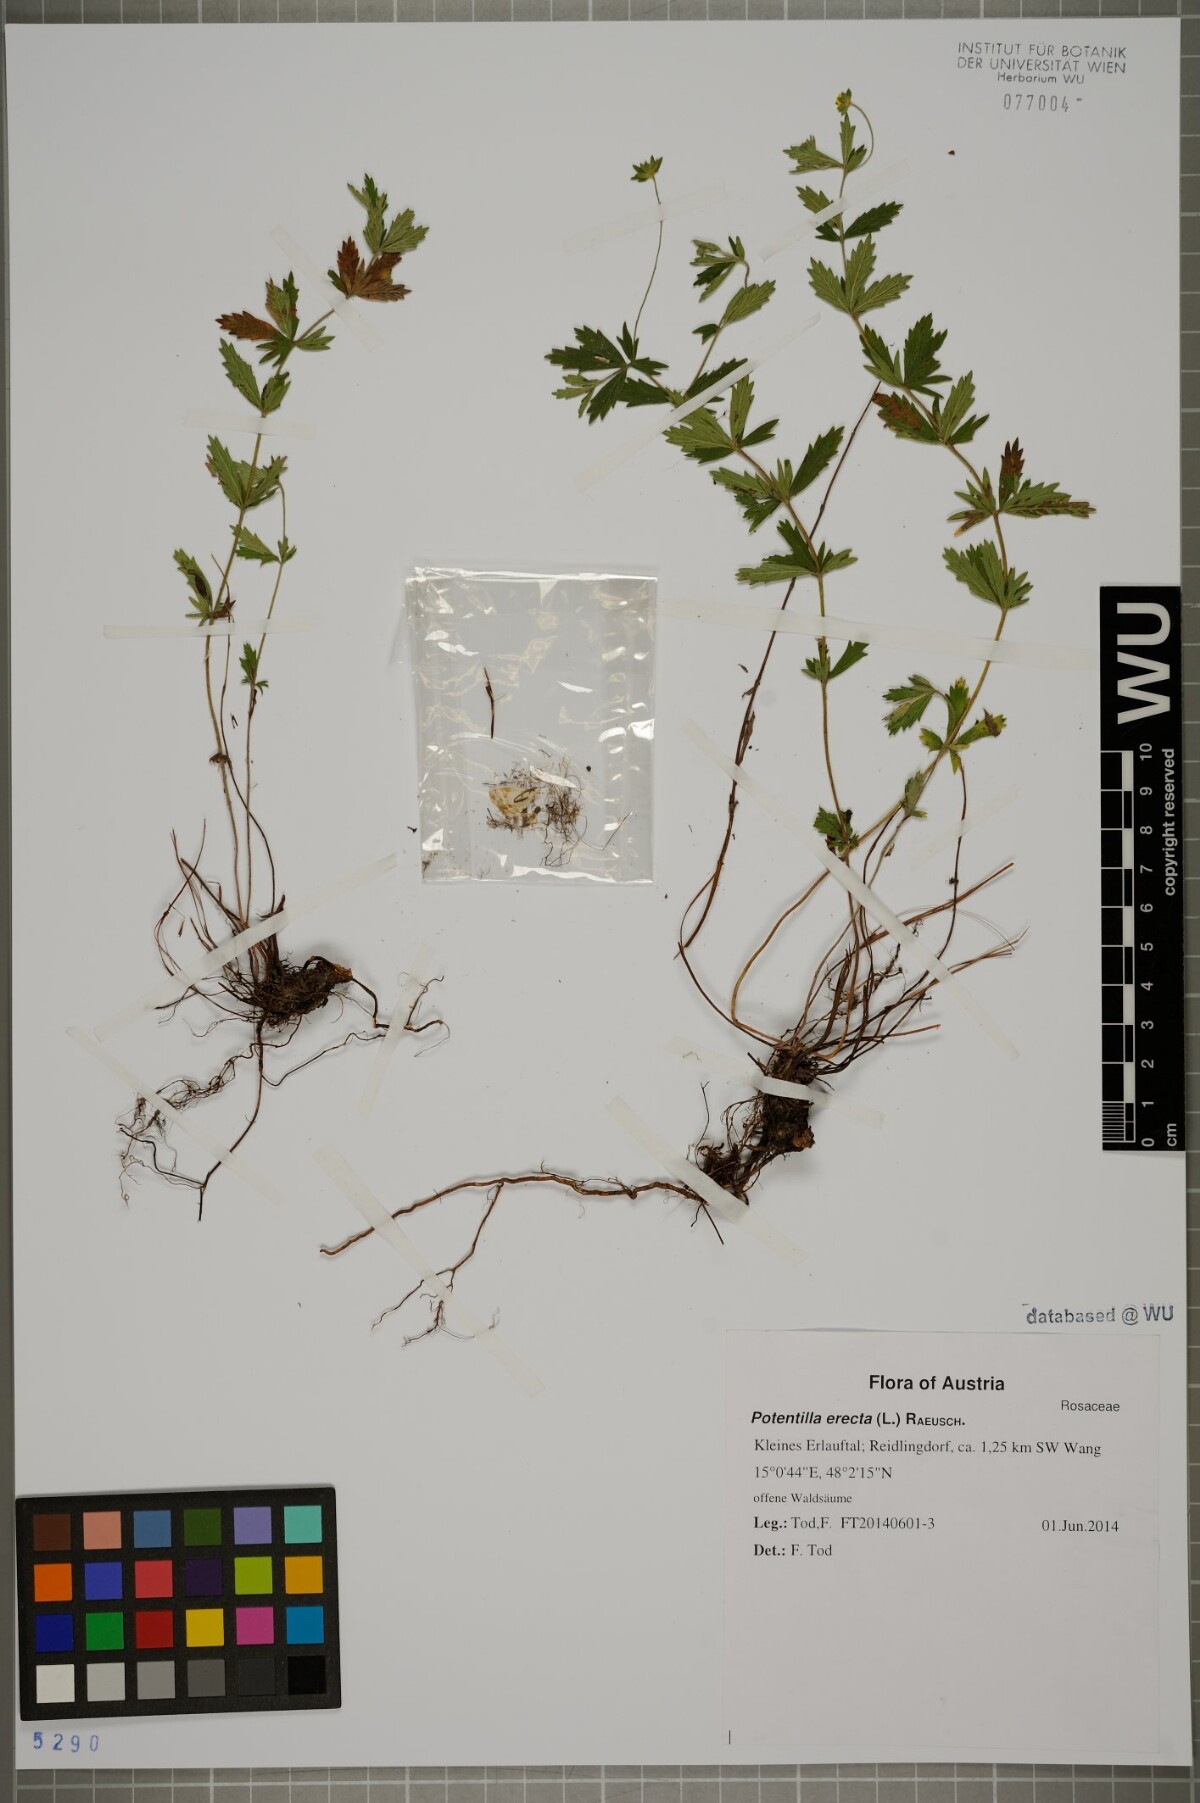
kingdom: Plantae
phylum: Tracheophyta
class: Magnoliopsida
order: Rosales
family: Rosaceae
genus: Potentilla
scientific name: Potentilla erecta
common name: Tormentil
